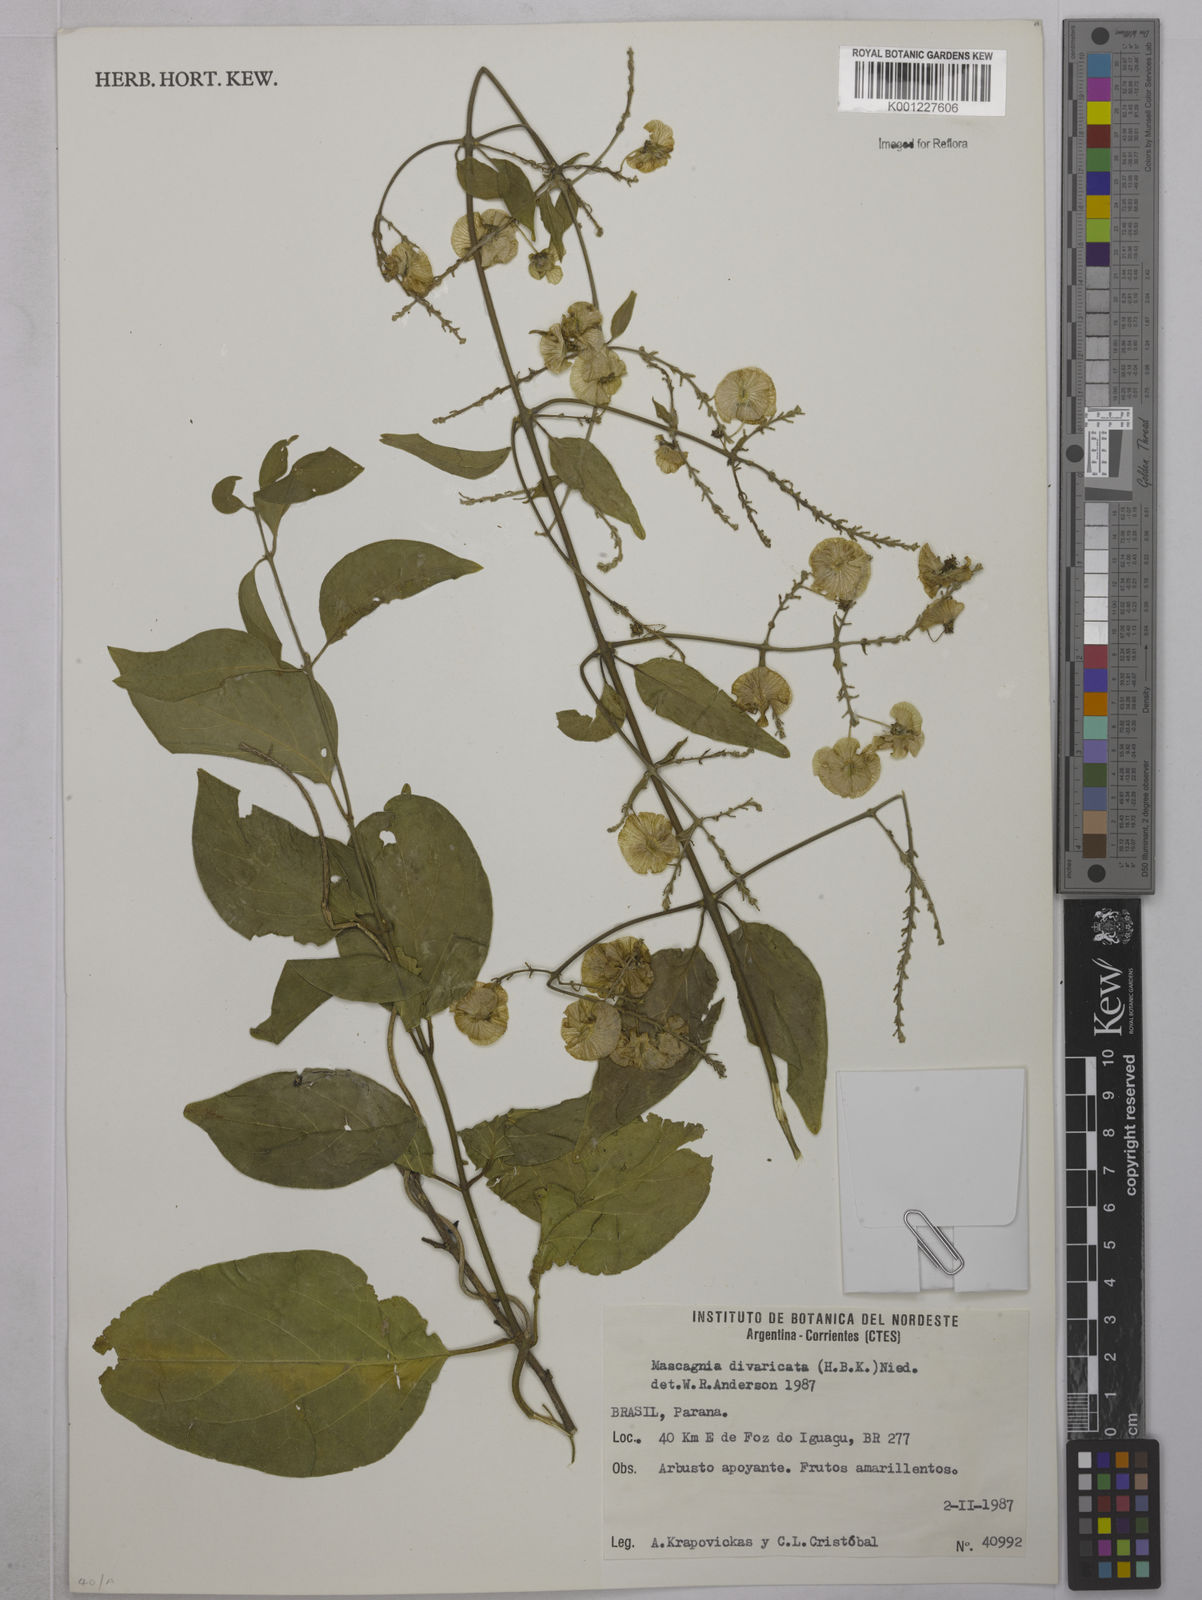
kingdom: Plantae
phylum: Tracheophyta
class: Magnoliopsida
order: Malpighiales
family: Malpighiaceae
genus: Mascagnia
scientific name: Mascagnia divaricata
